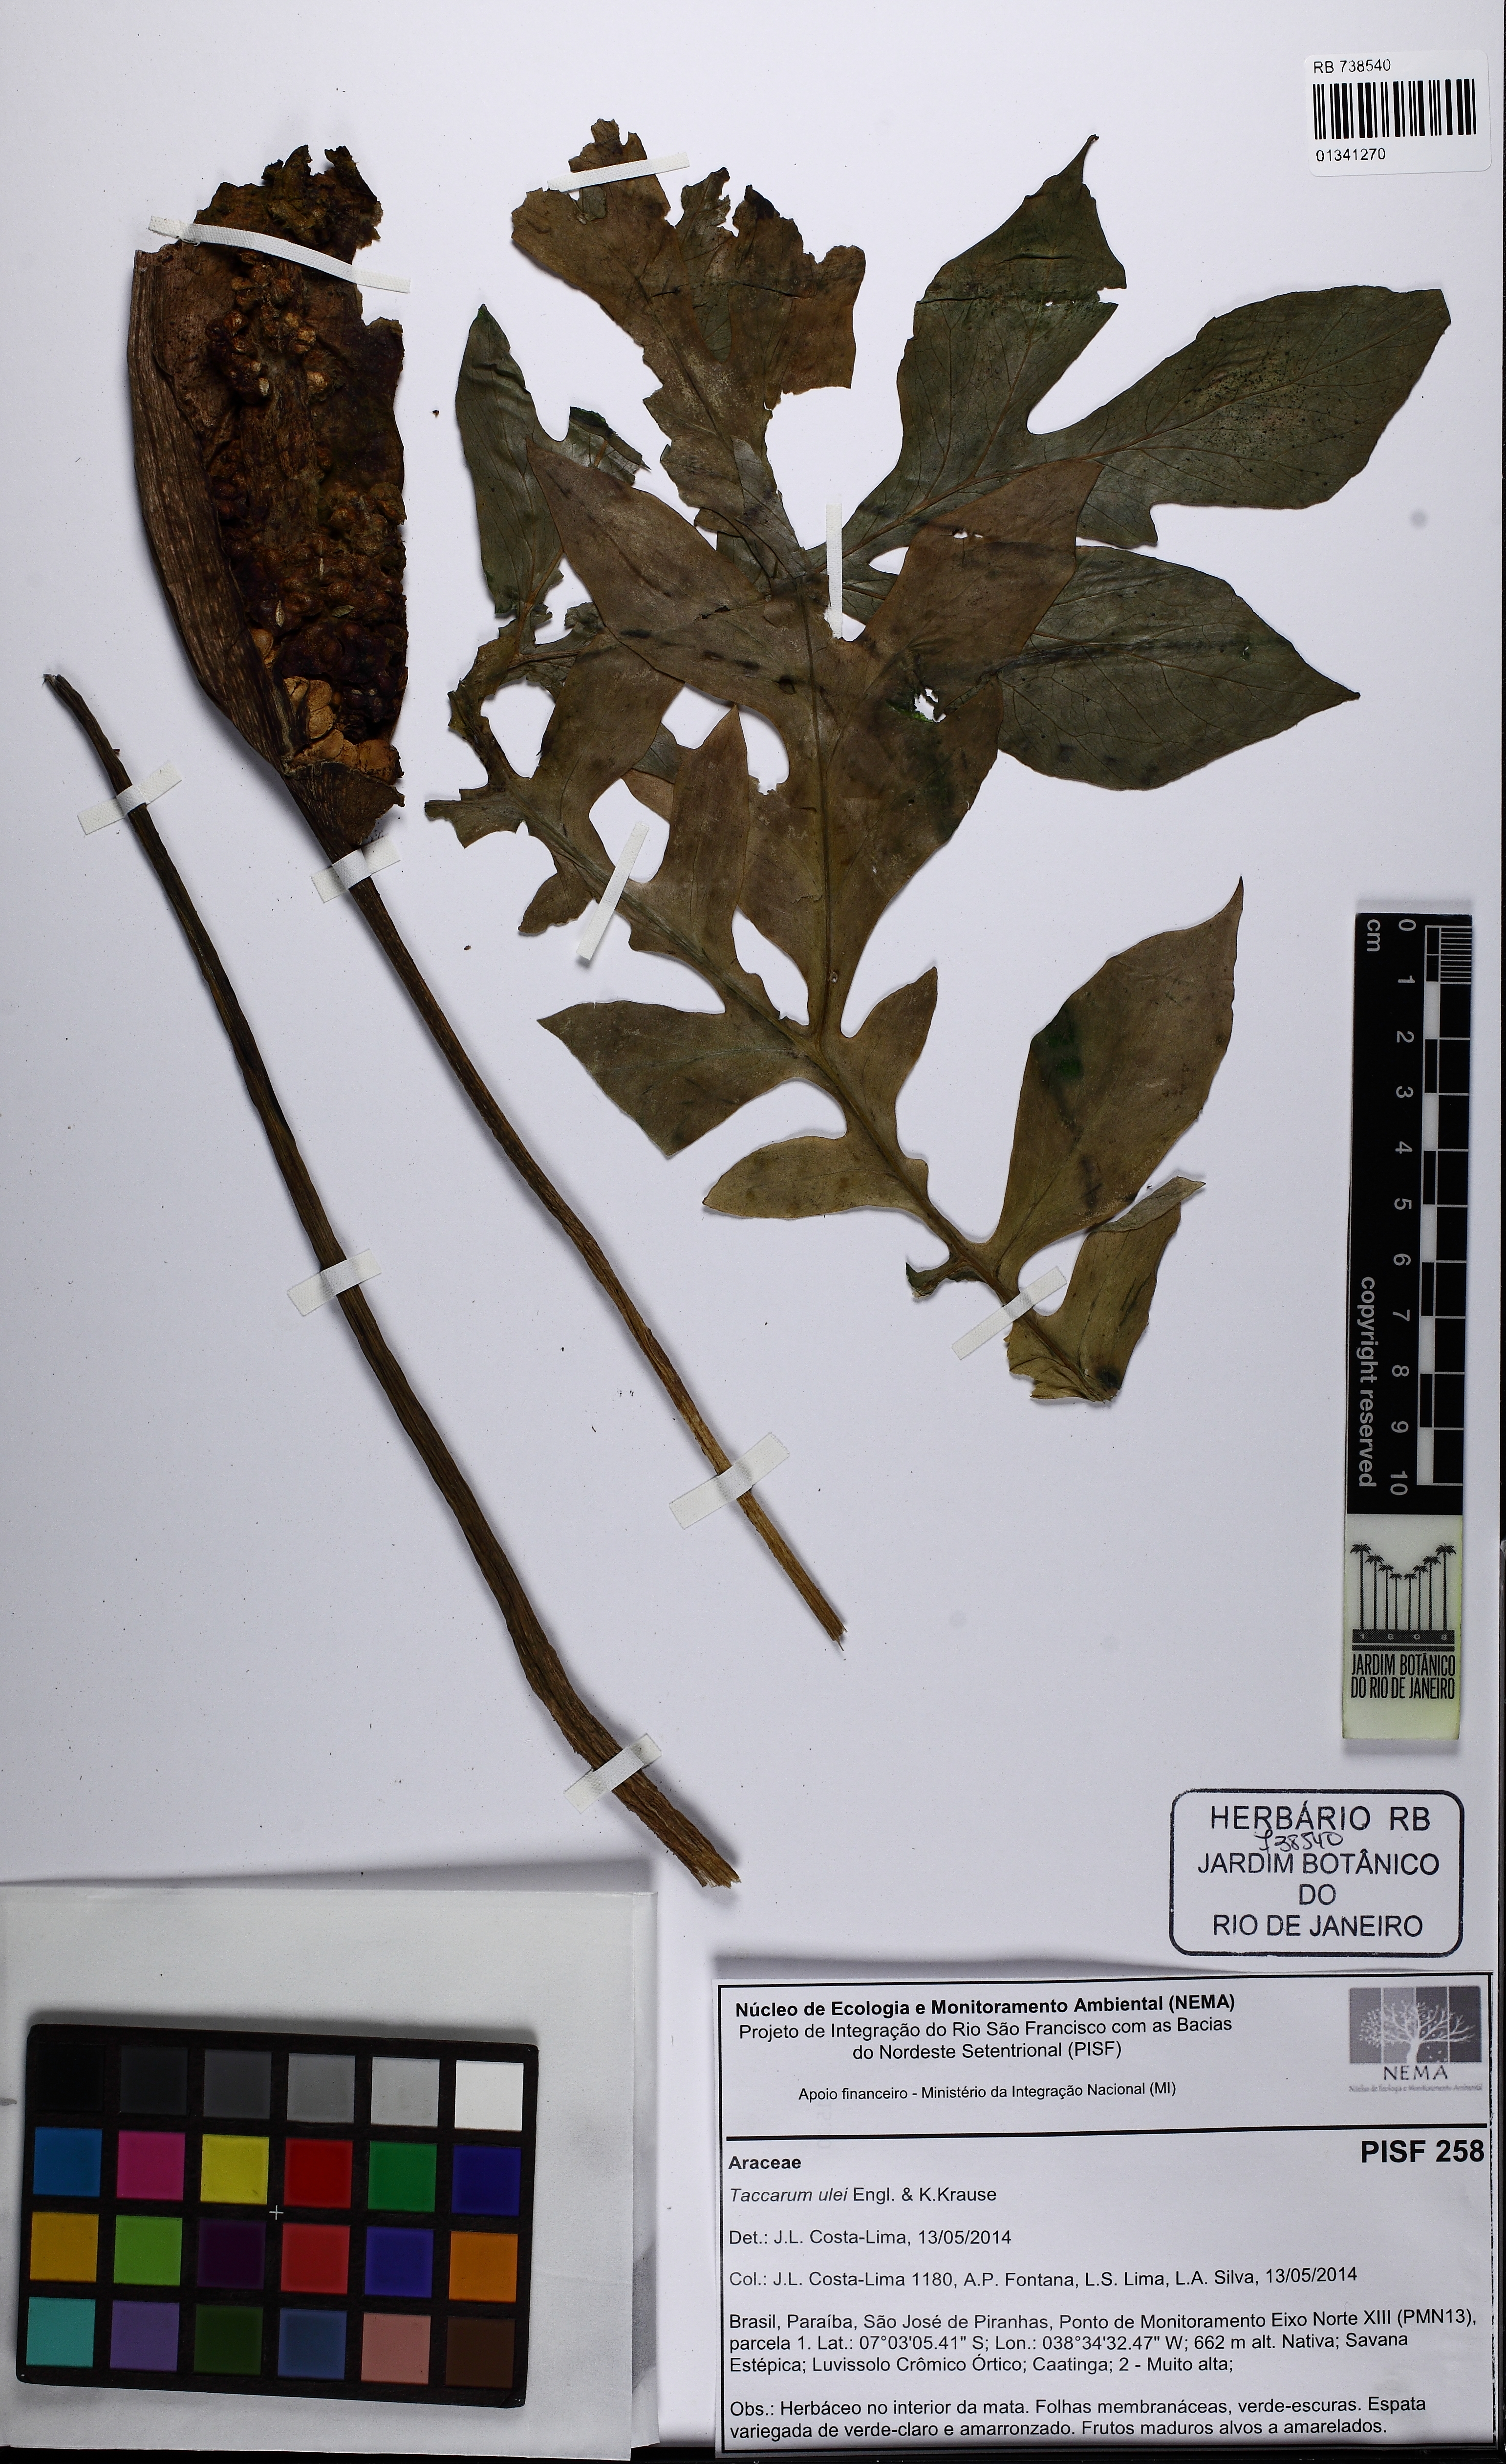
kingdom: Plantae
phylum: Tracheophyta
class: Liliopsida
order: Alismatales
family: Araceae
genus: Taccarum
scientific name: Taccarum ulei
